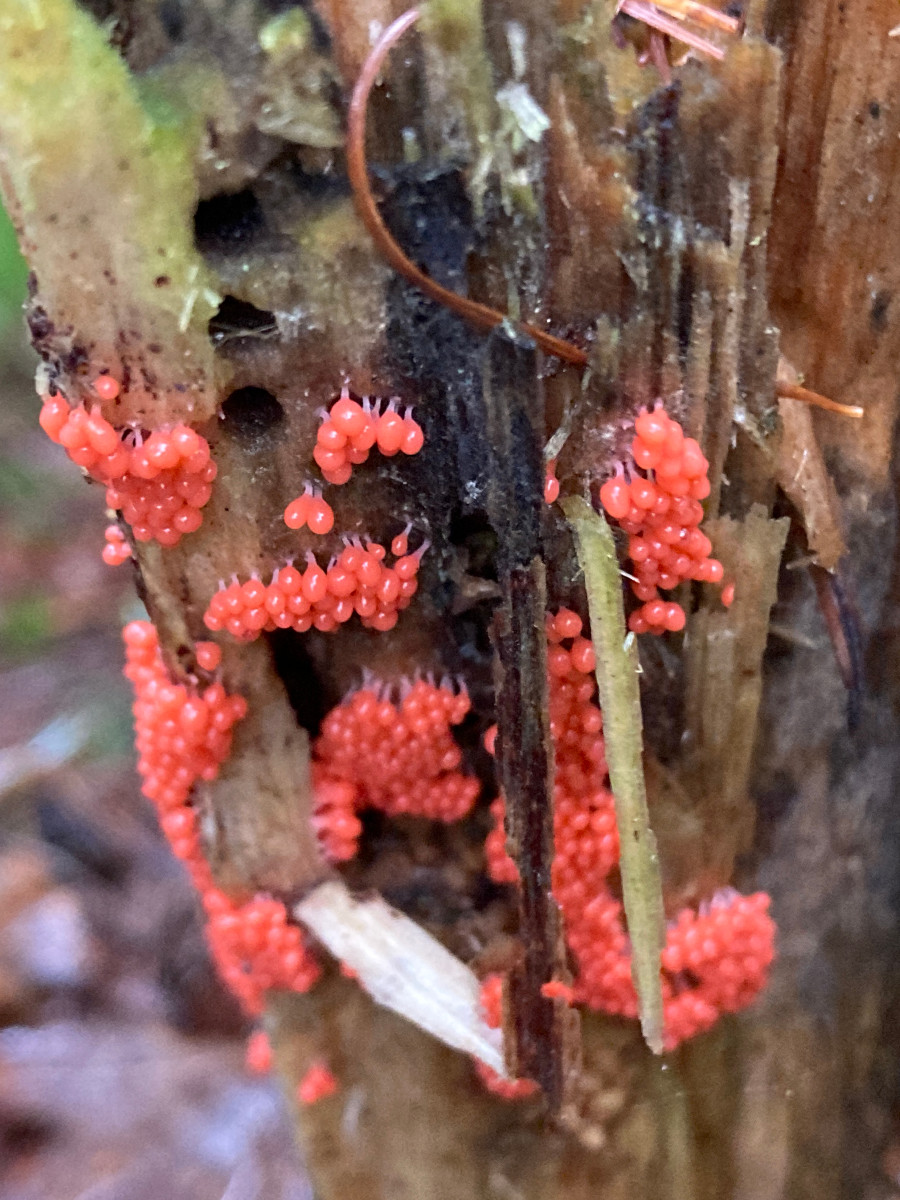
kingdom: Protozoa
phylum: Mycetozoa
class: Myxomycetes
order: Trichiales
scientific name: Trichiales
